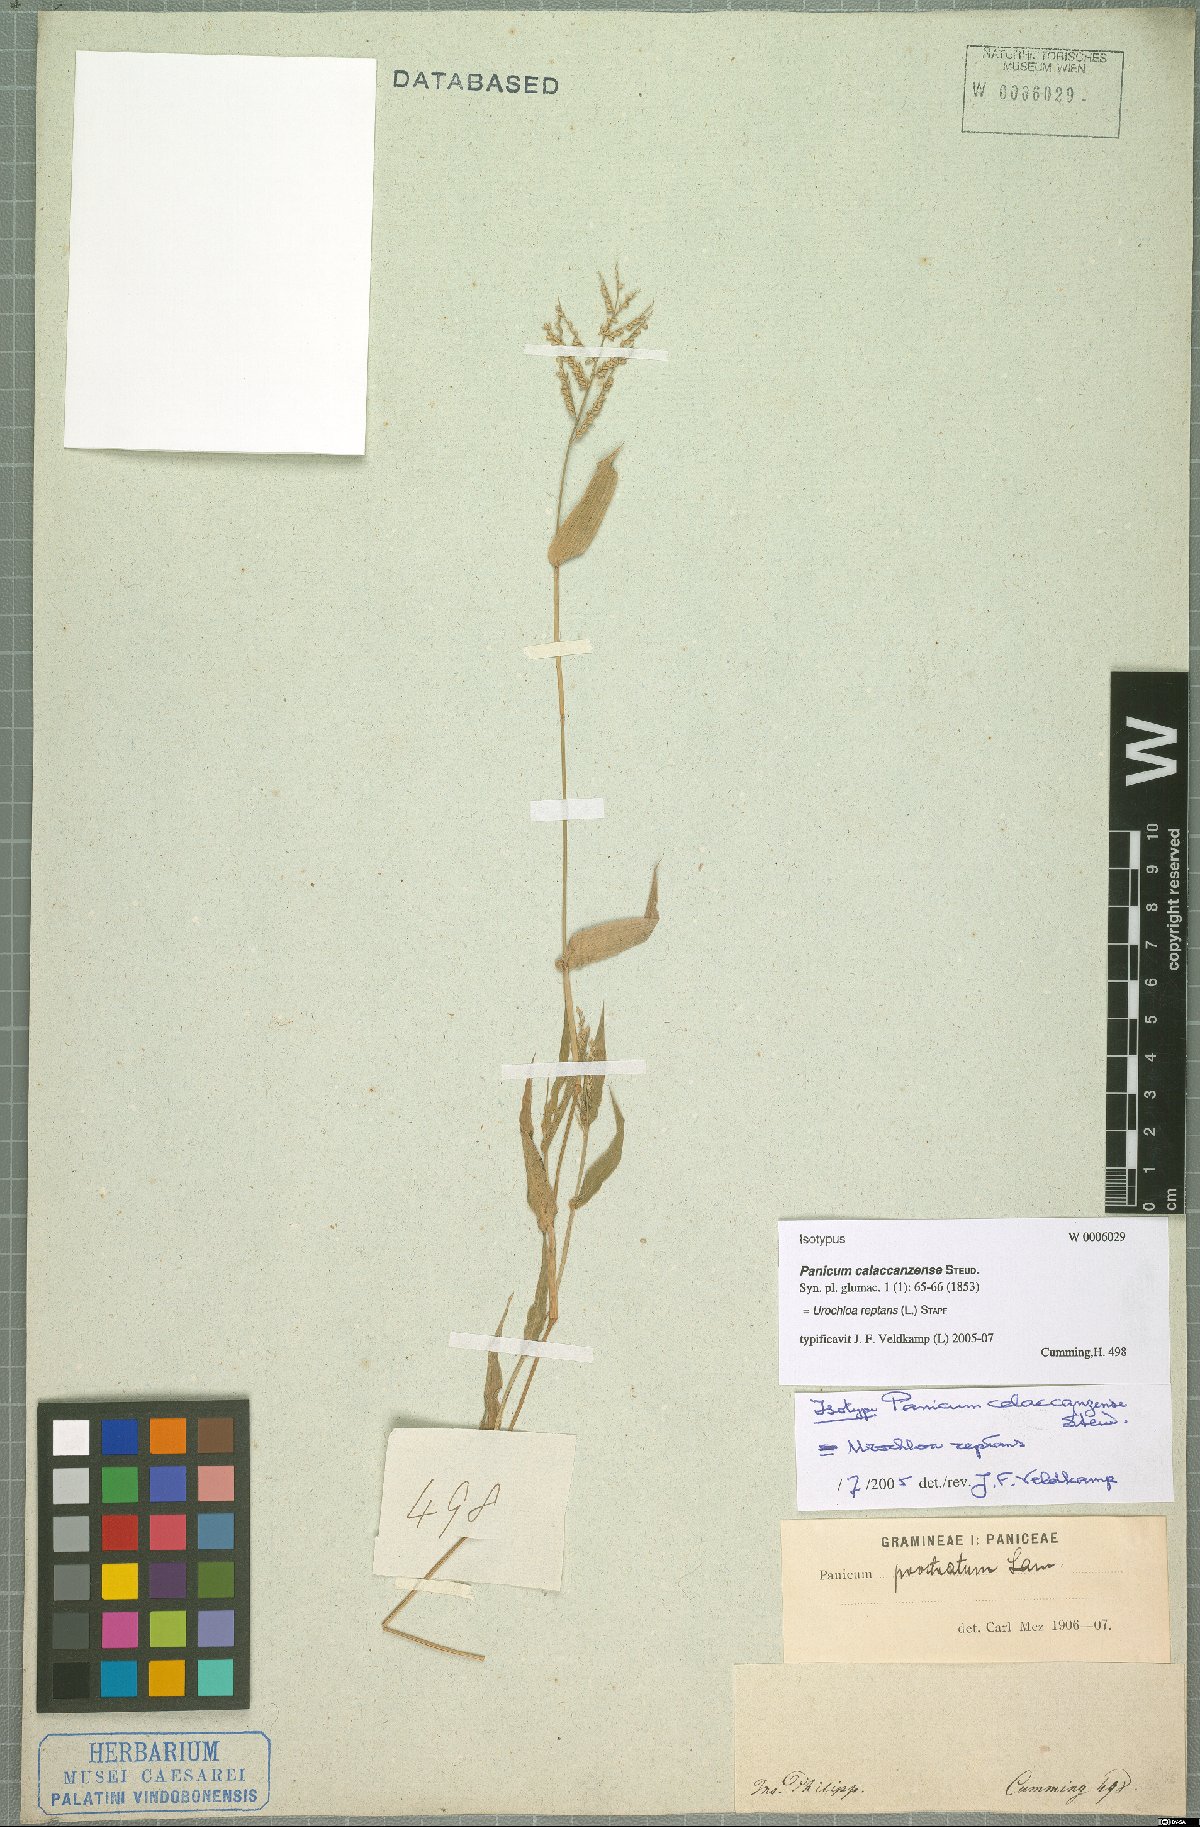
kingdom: Plantae
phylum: Tracheophyta
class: Liliopsida
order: Poales
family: Poaceae
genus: Urochloa
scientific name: Urochloa reptans
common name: Sprawling signalgrass
